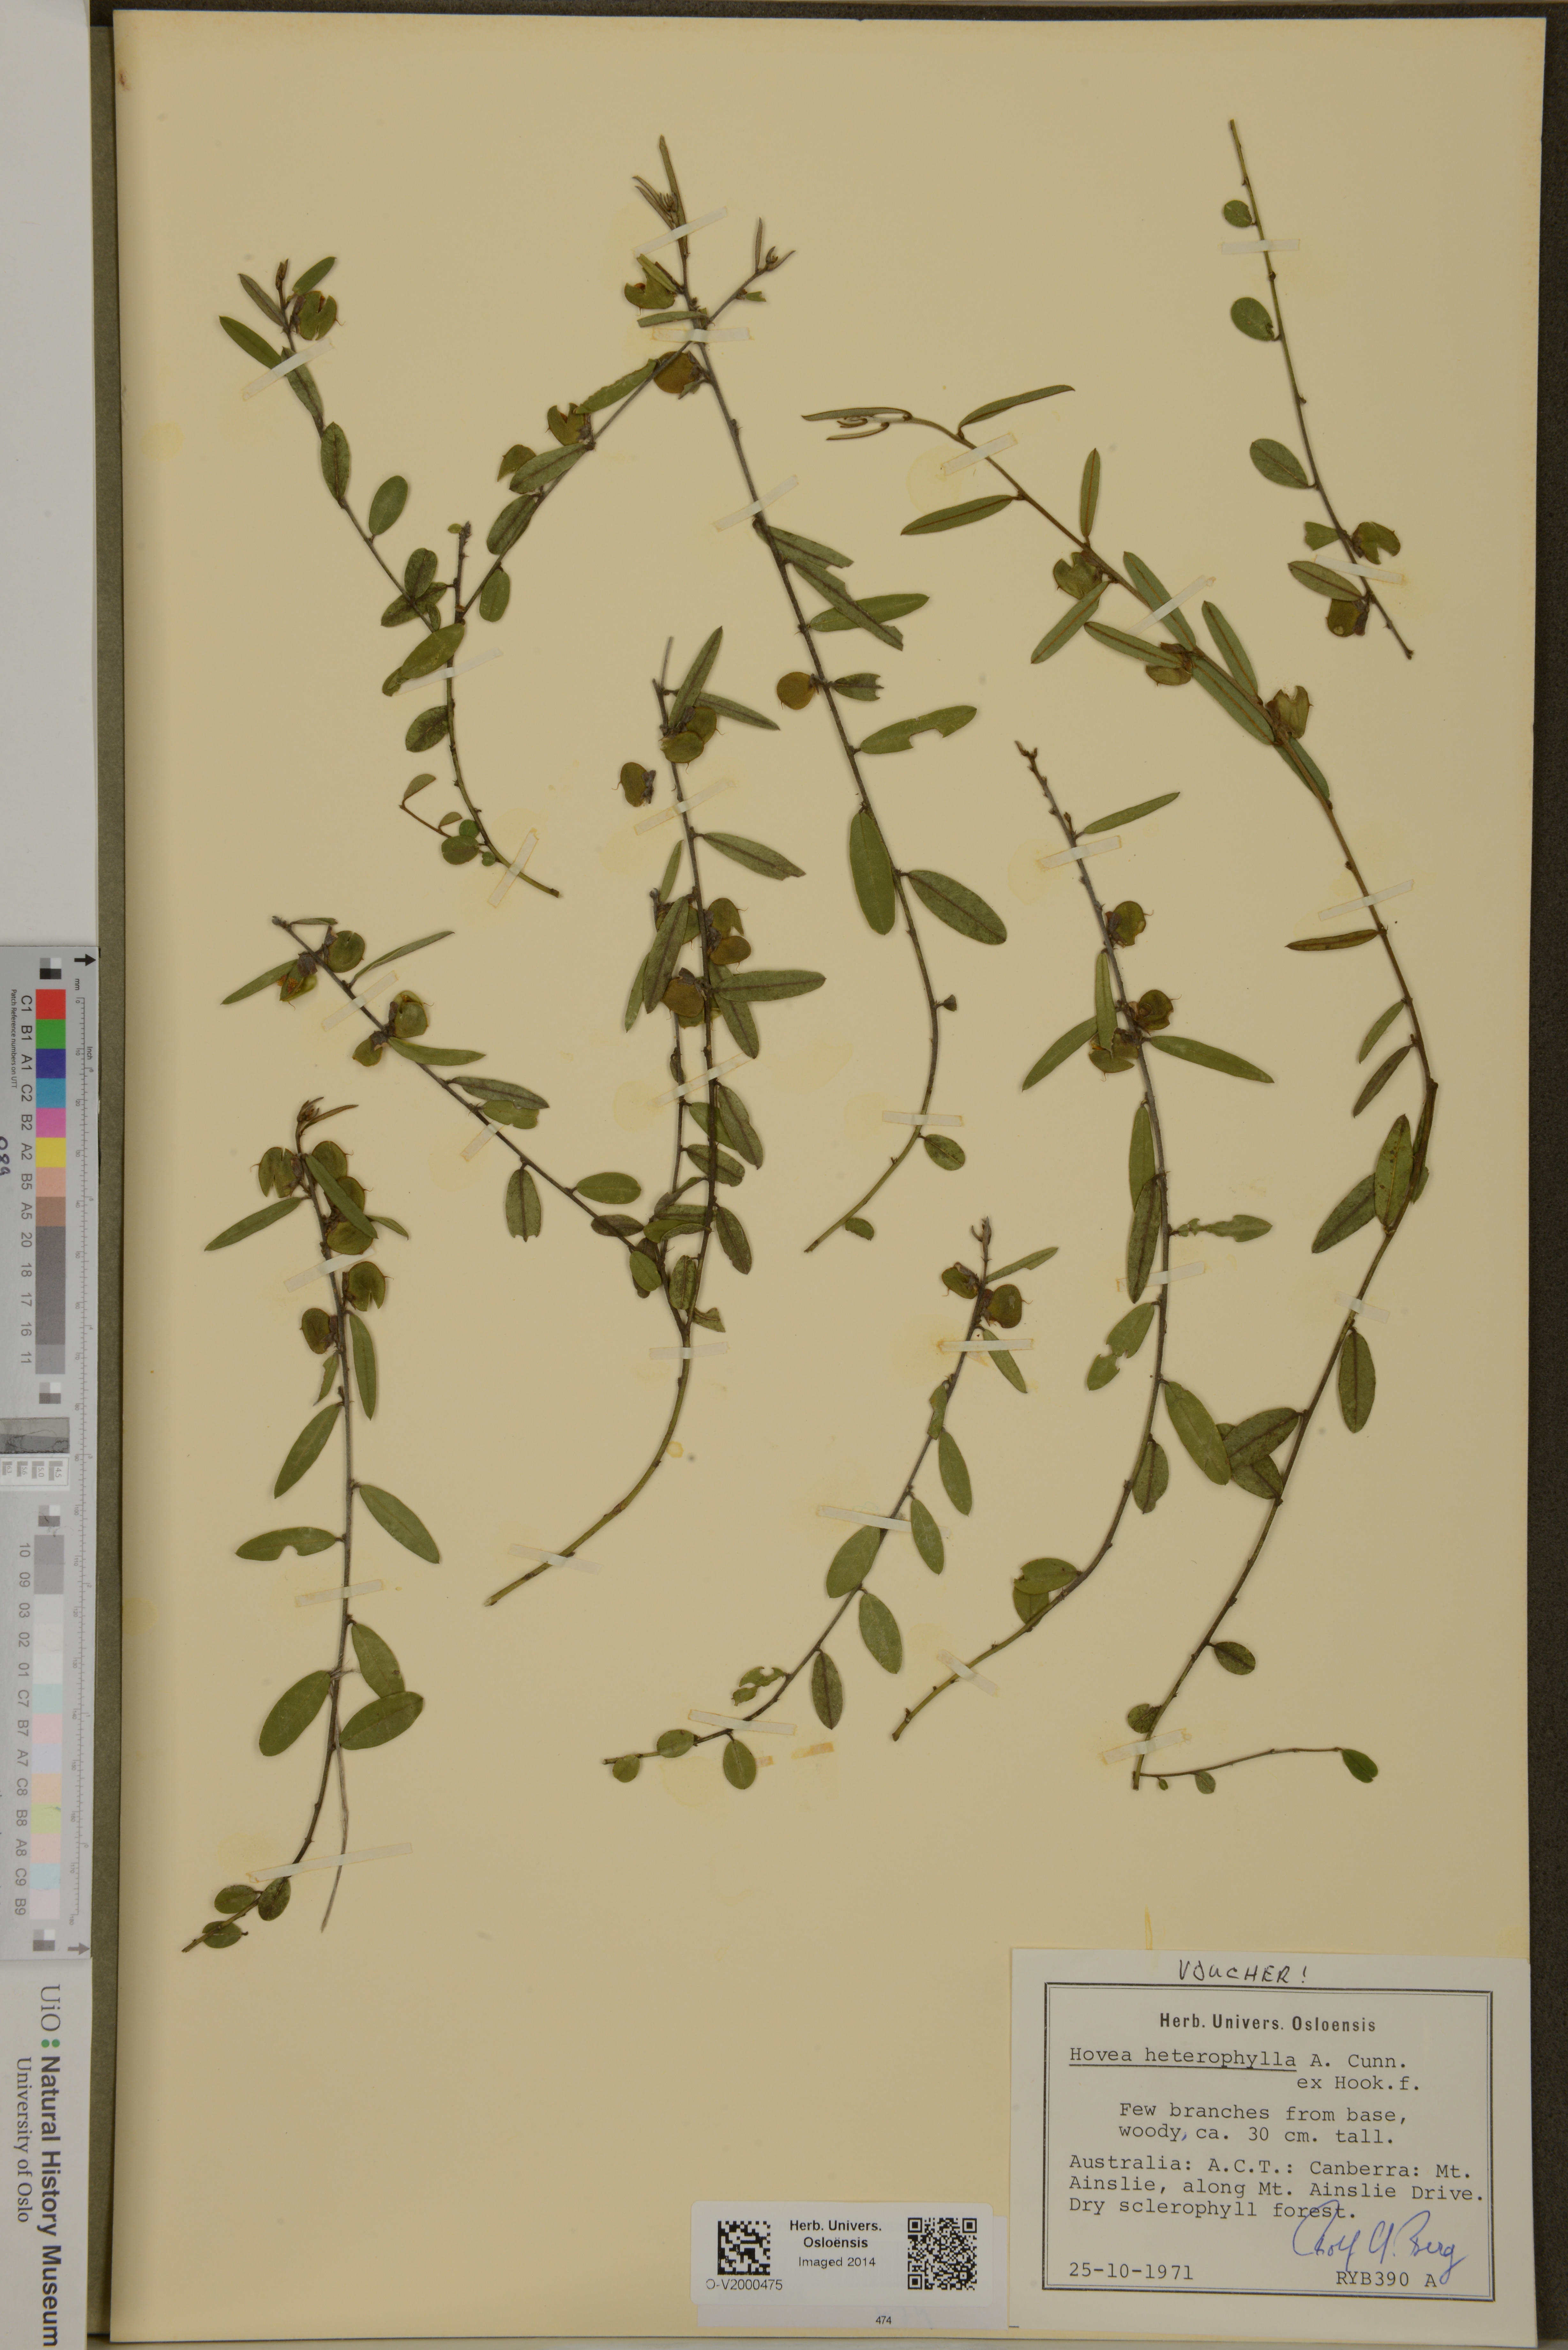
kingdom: Plantae
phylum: Tracheophyta
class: Magnoliopsida
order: Fabales
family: Fabaceae
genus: Hovea
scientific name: Hovea heterophylla
